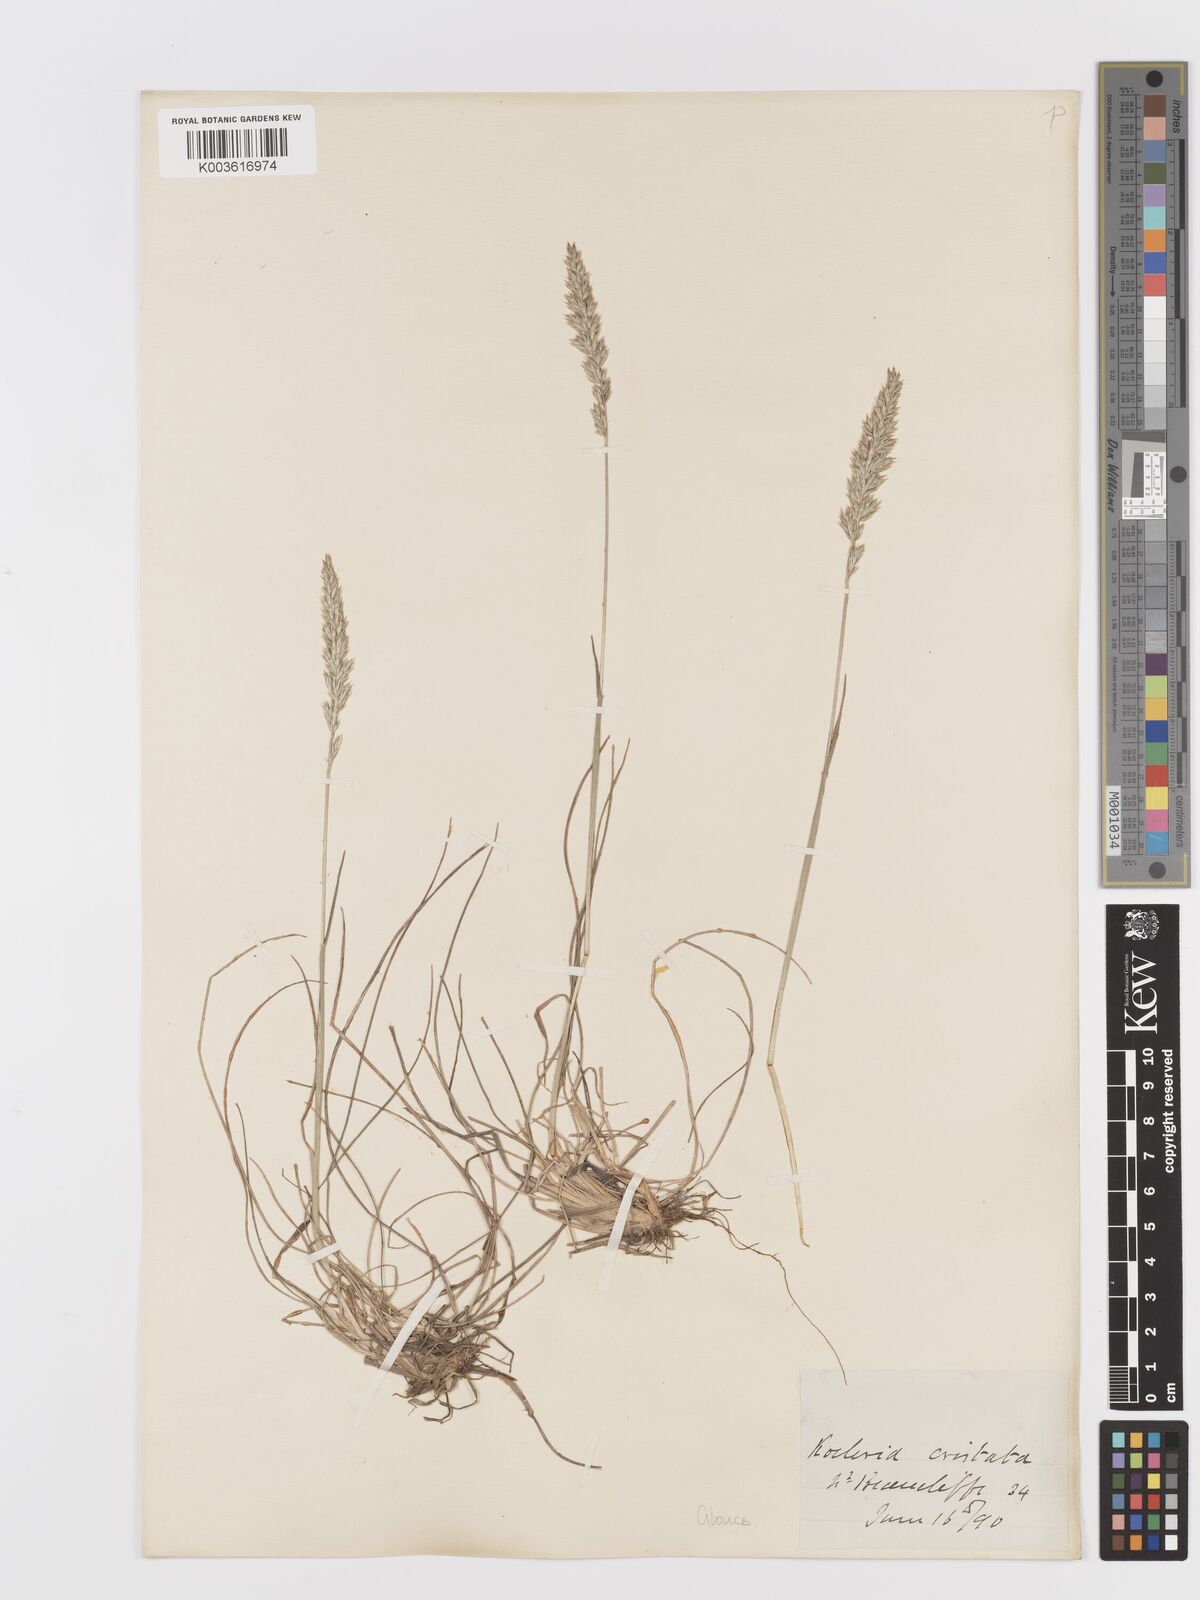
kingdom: Plantae
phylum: Tracheophyta
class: Liliopsida
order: Poales
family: Poaceae
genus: Koeleria
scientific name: Koeleria macrantha
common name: Crested hair-grass
